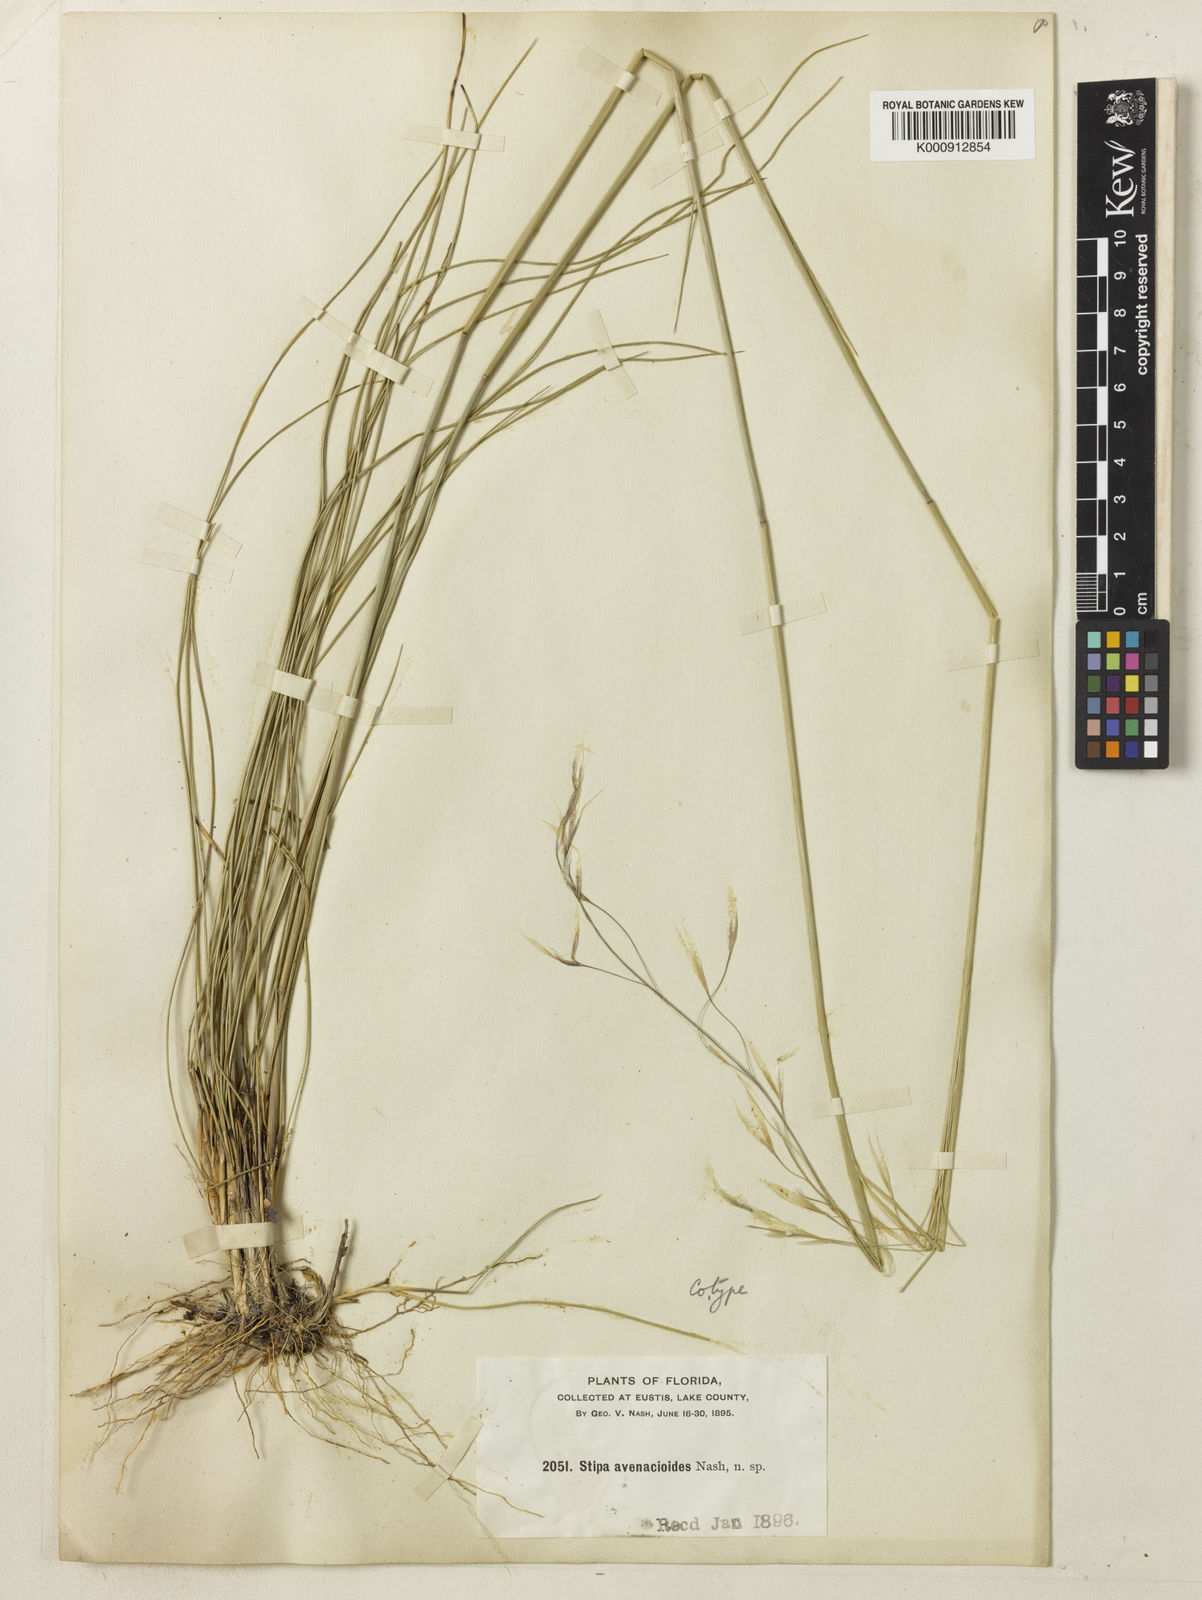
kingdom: Plantae
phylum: Tracheophyta
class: Liliopsida
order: Poales
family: Poaceae
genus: Piptochaetium
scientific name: Piptochaetium avenacioides
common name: Florida needlegrass
